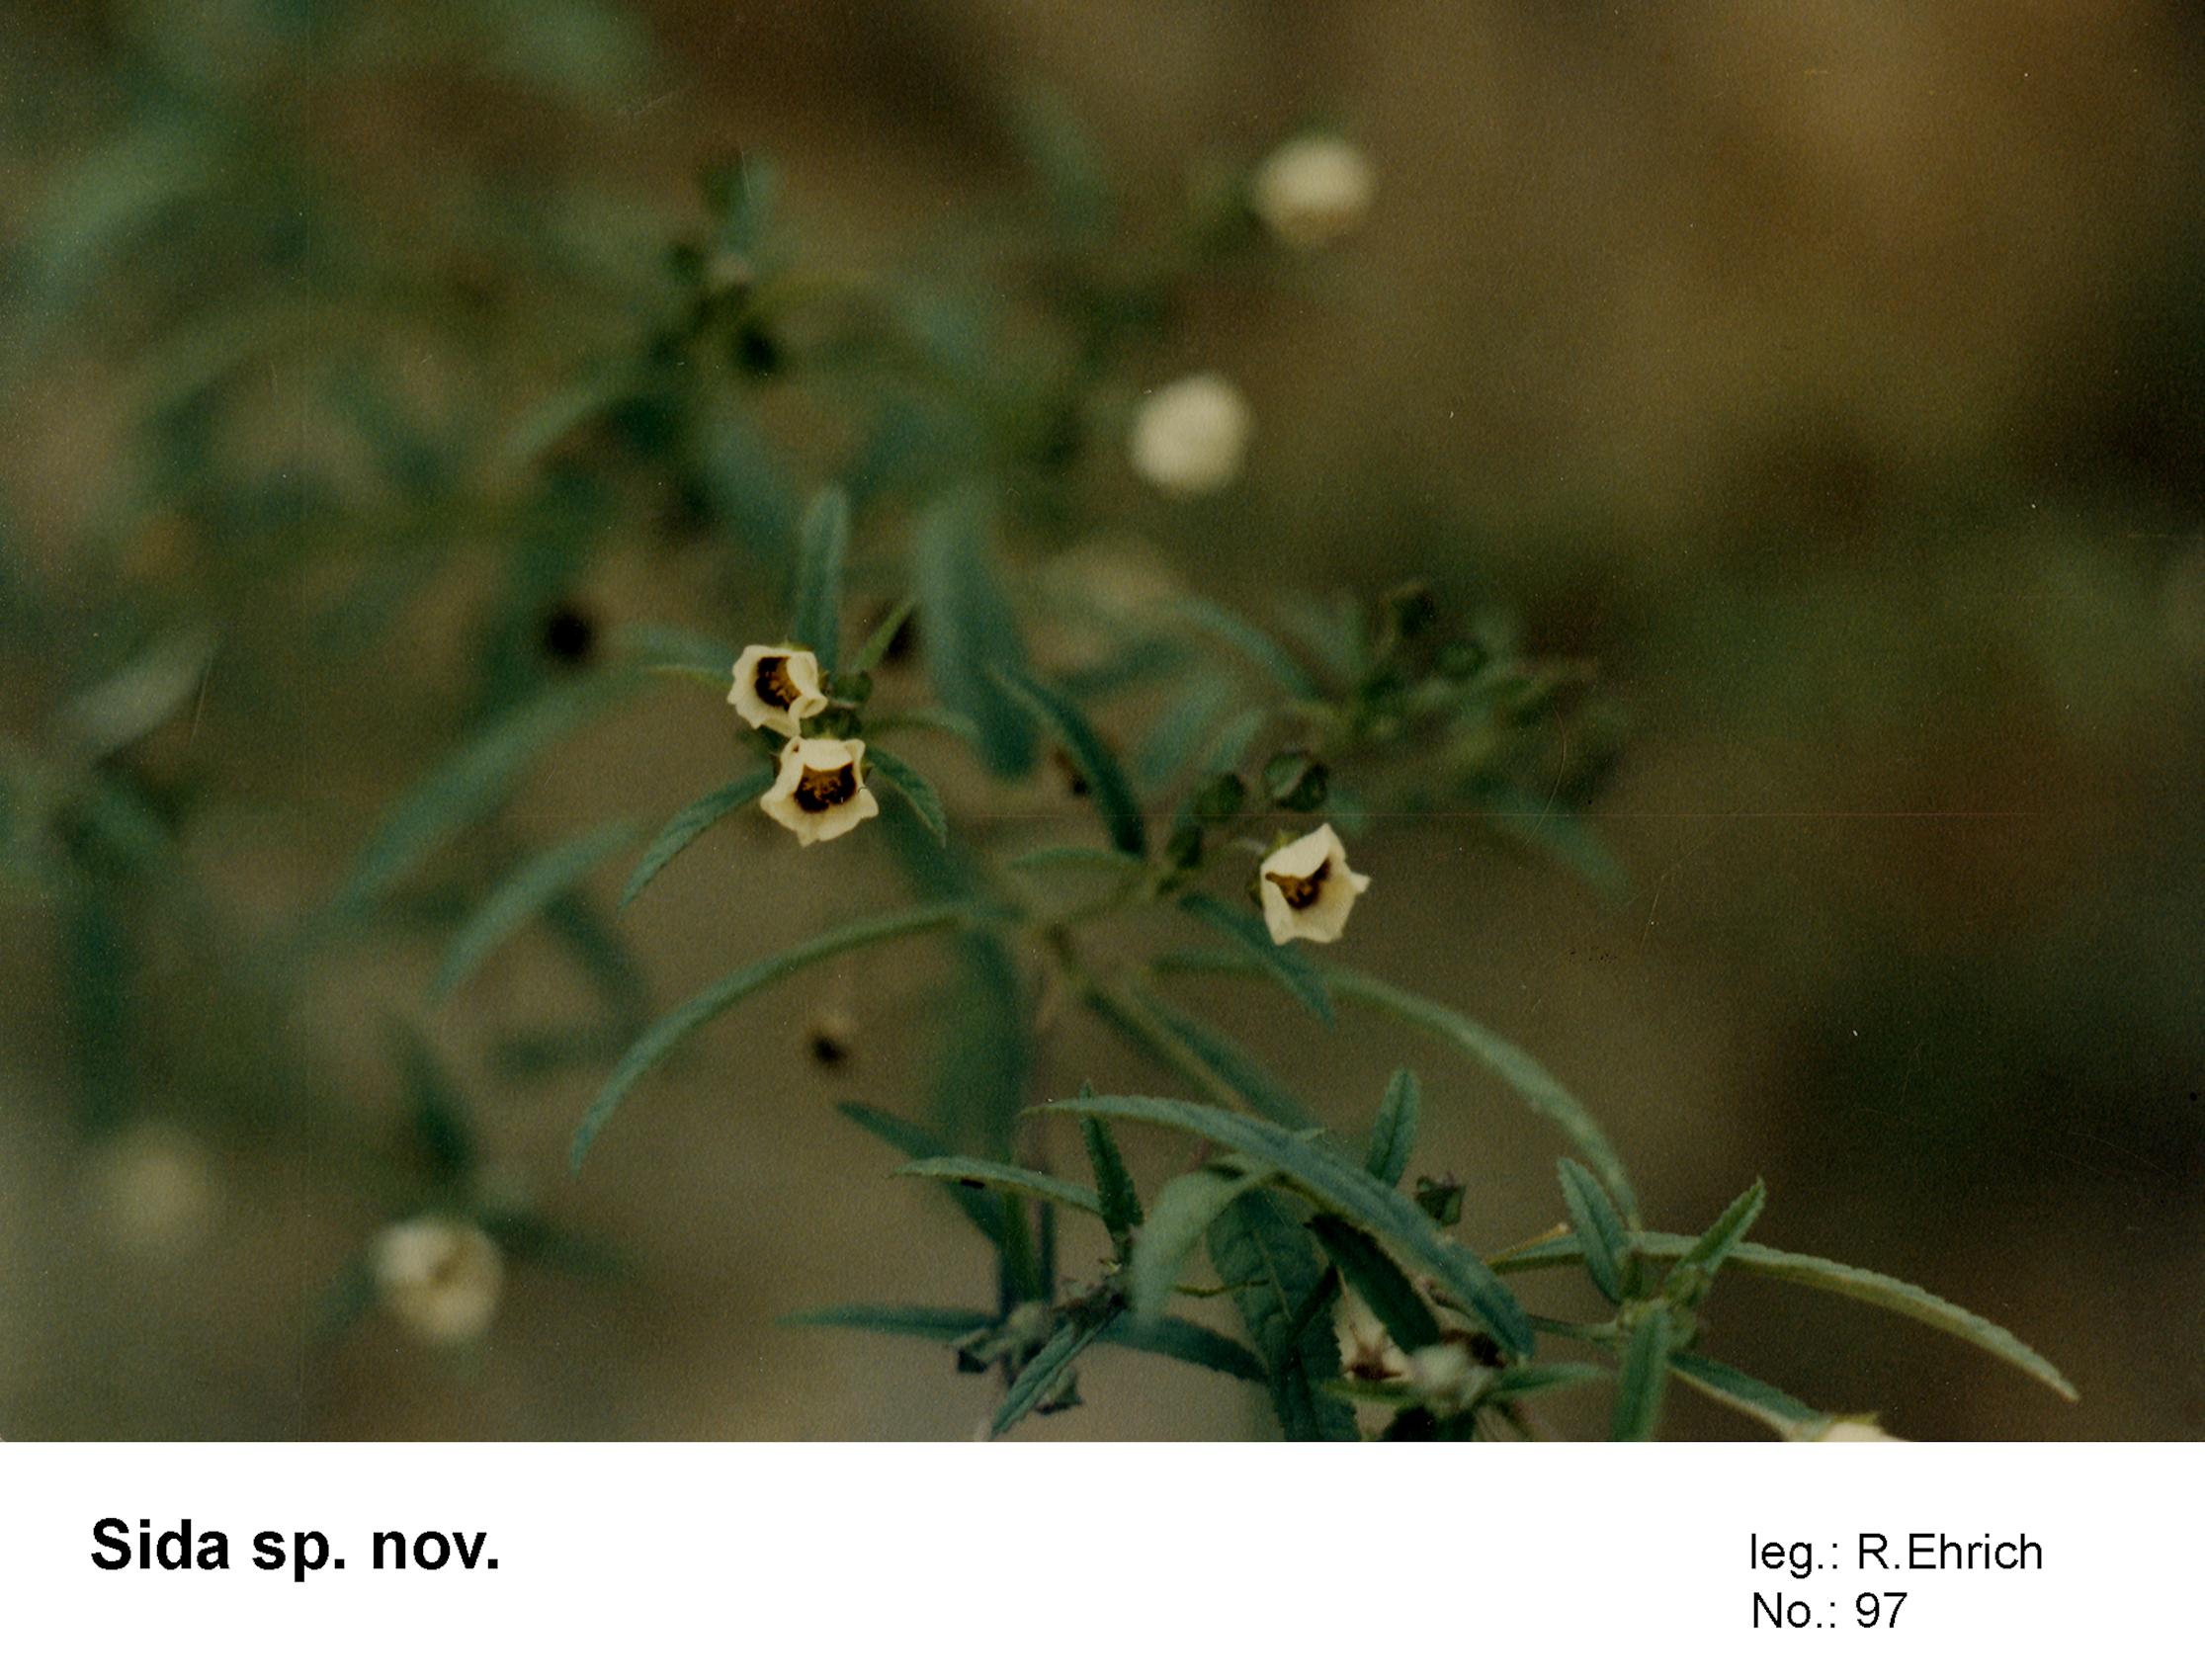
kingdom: Plantae
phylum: Tracheophyta
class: Magnoliopsida
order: Malvales
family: Malvaceae
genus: Sida
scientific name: Sida
